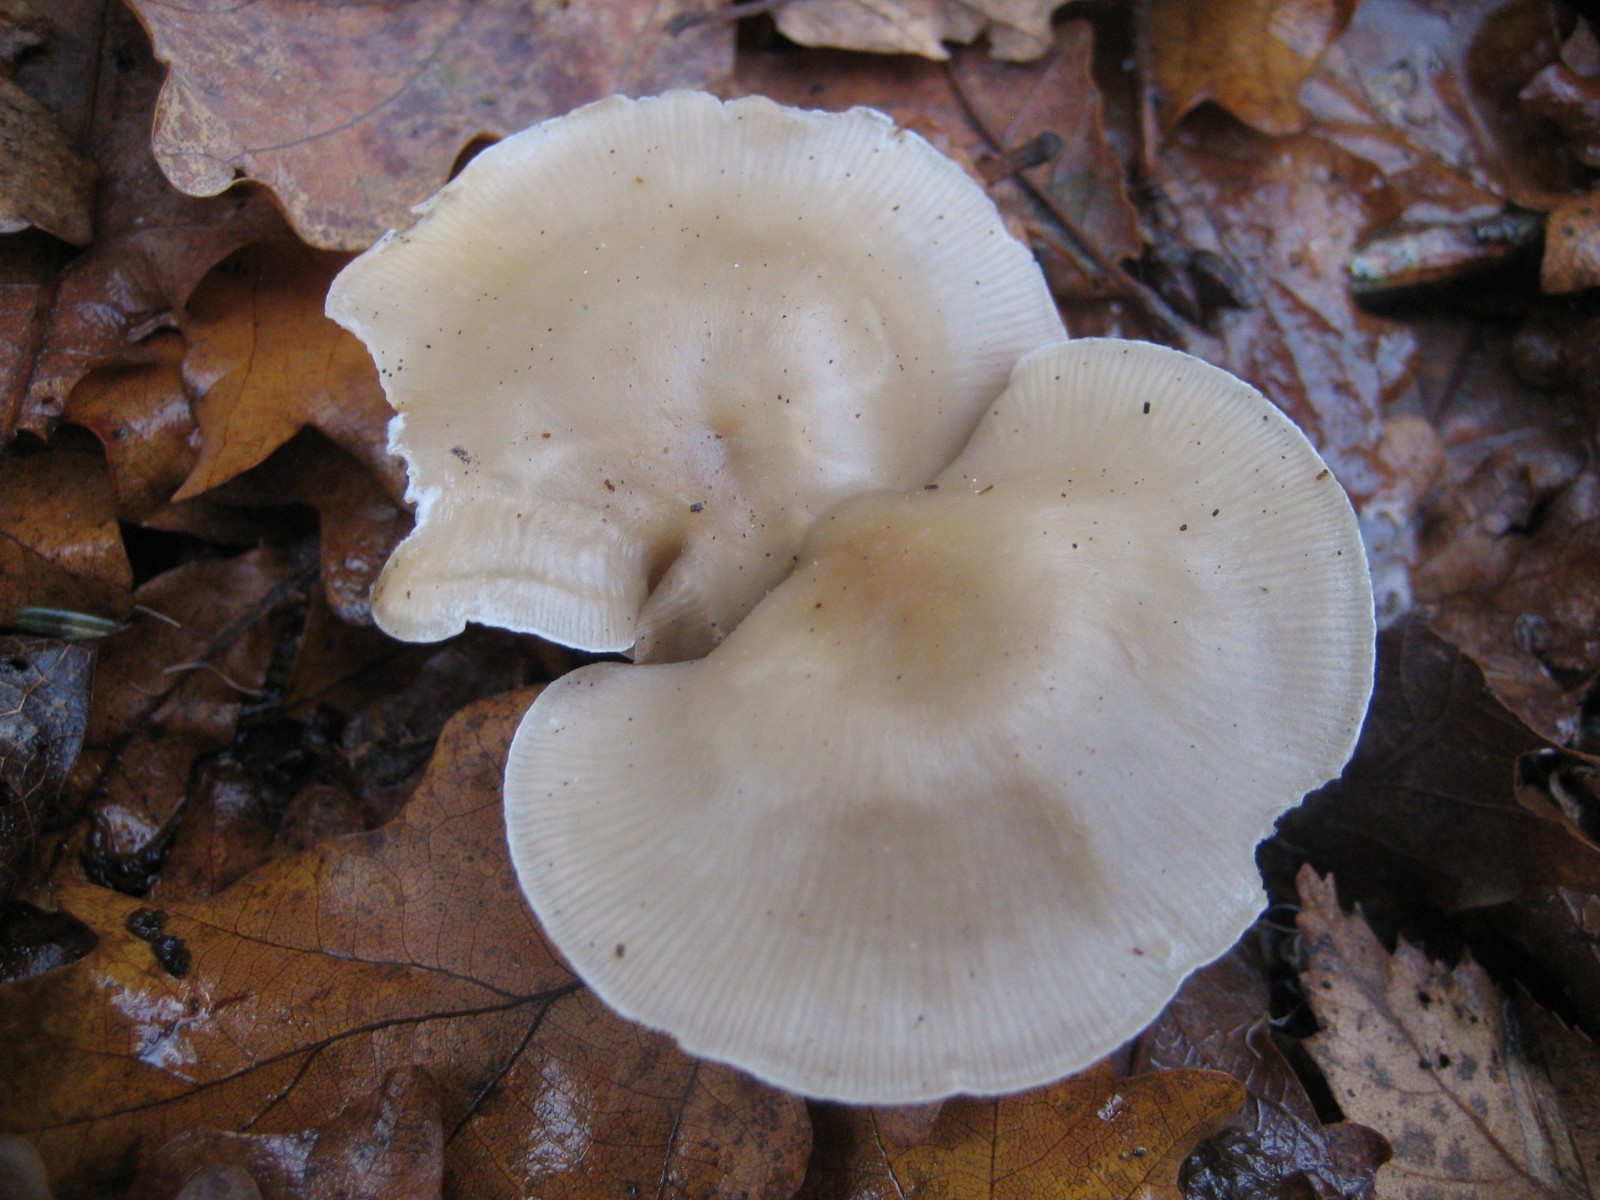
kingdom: Fungi
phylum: Basidiomycota
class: Agaricomycetes
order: Agaricales
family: Tricholomataceae
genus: Clitocybe
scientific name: Clitocybe
